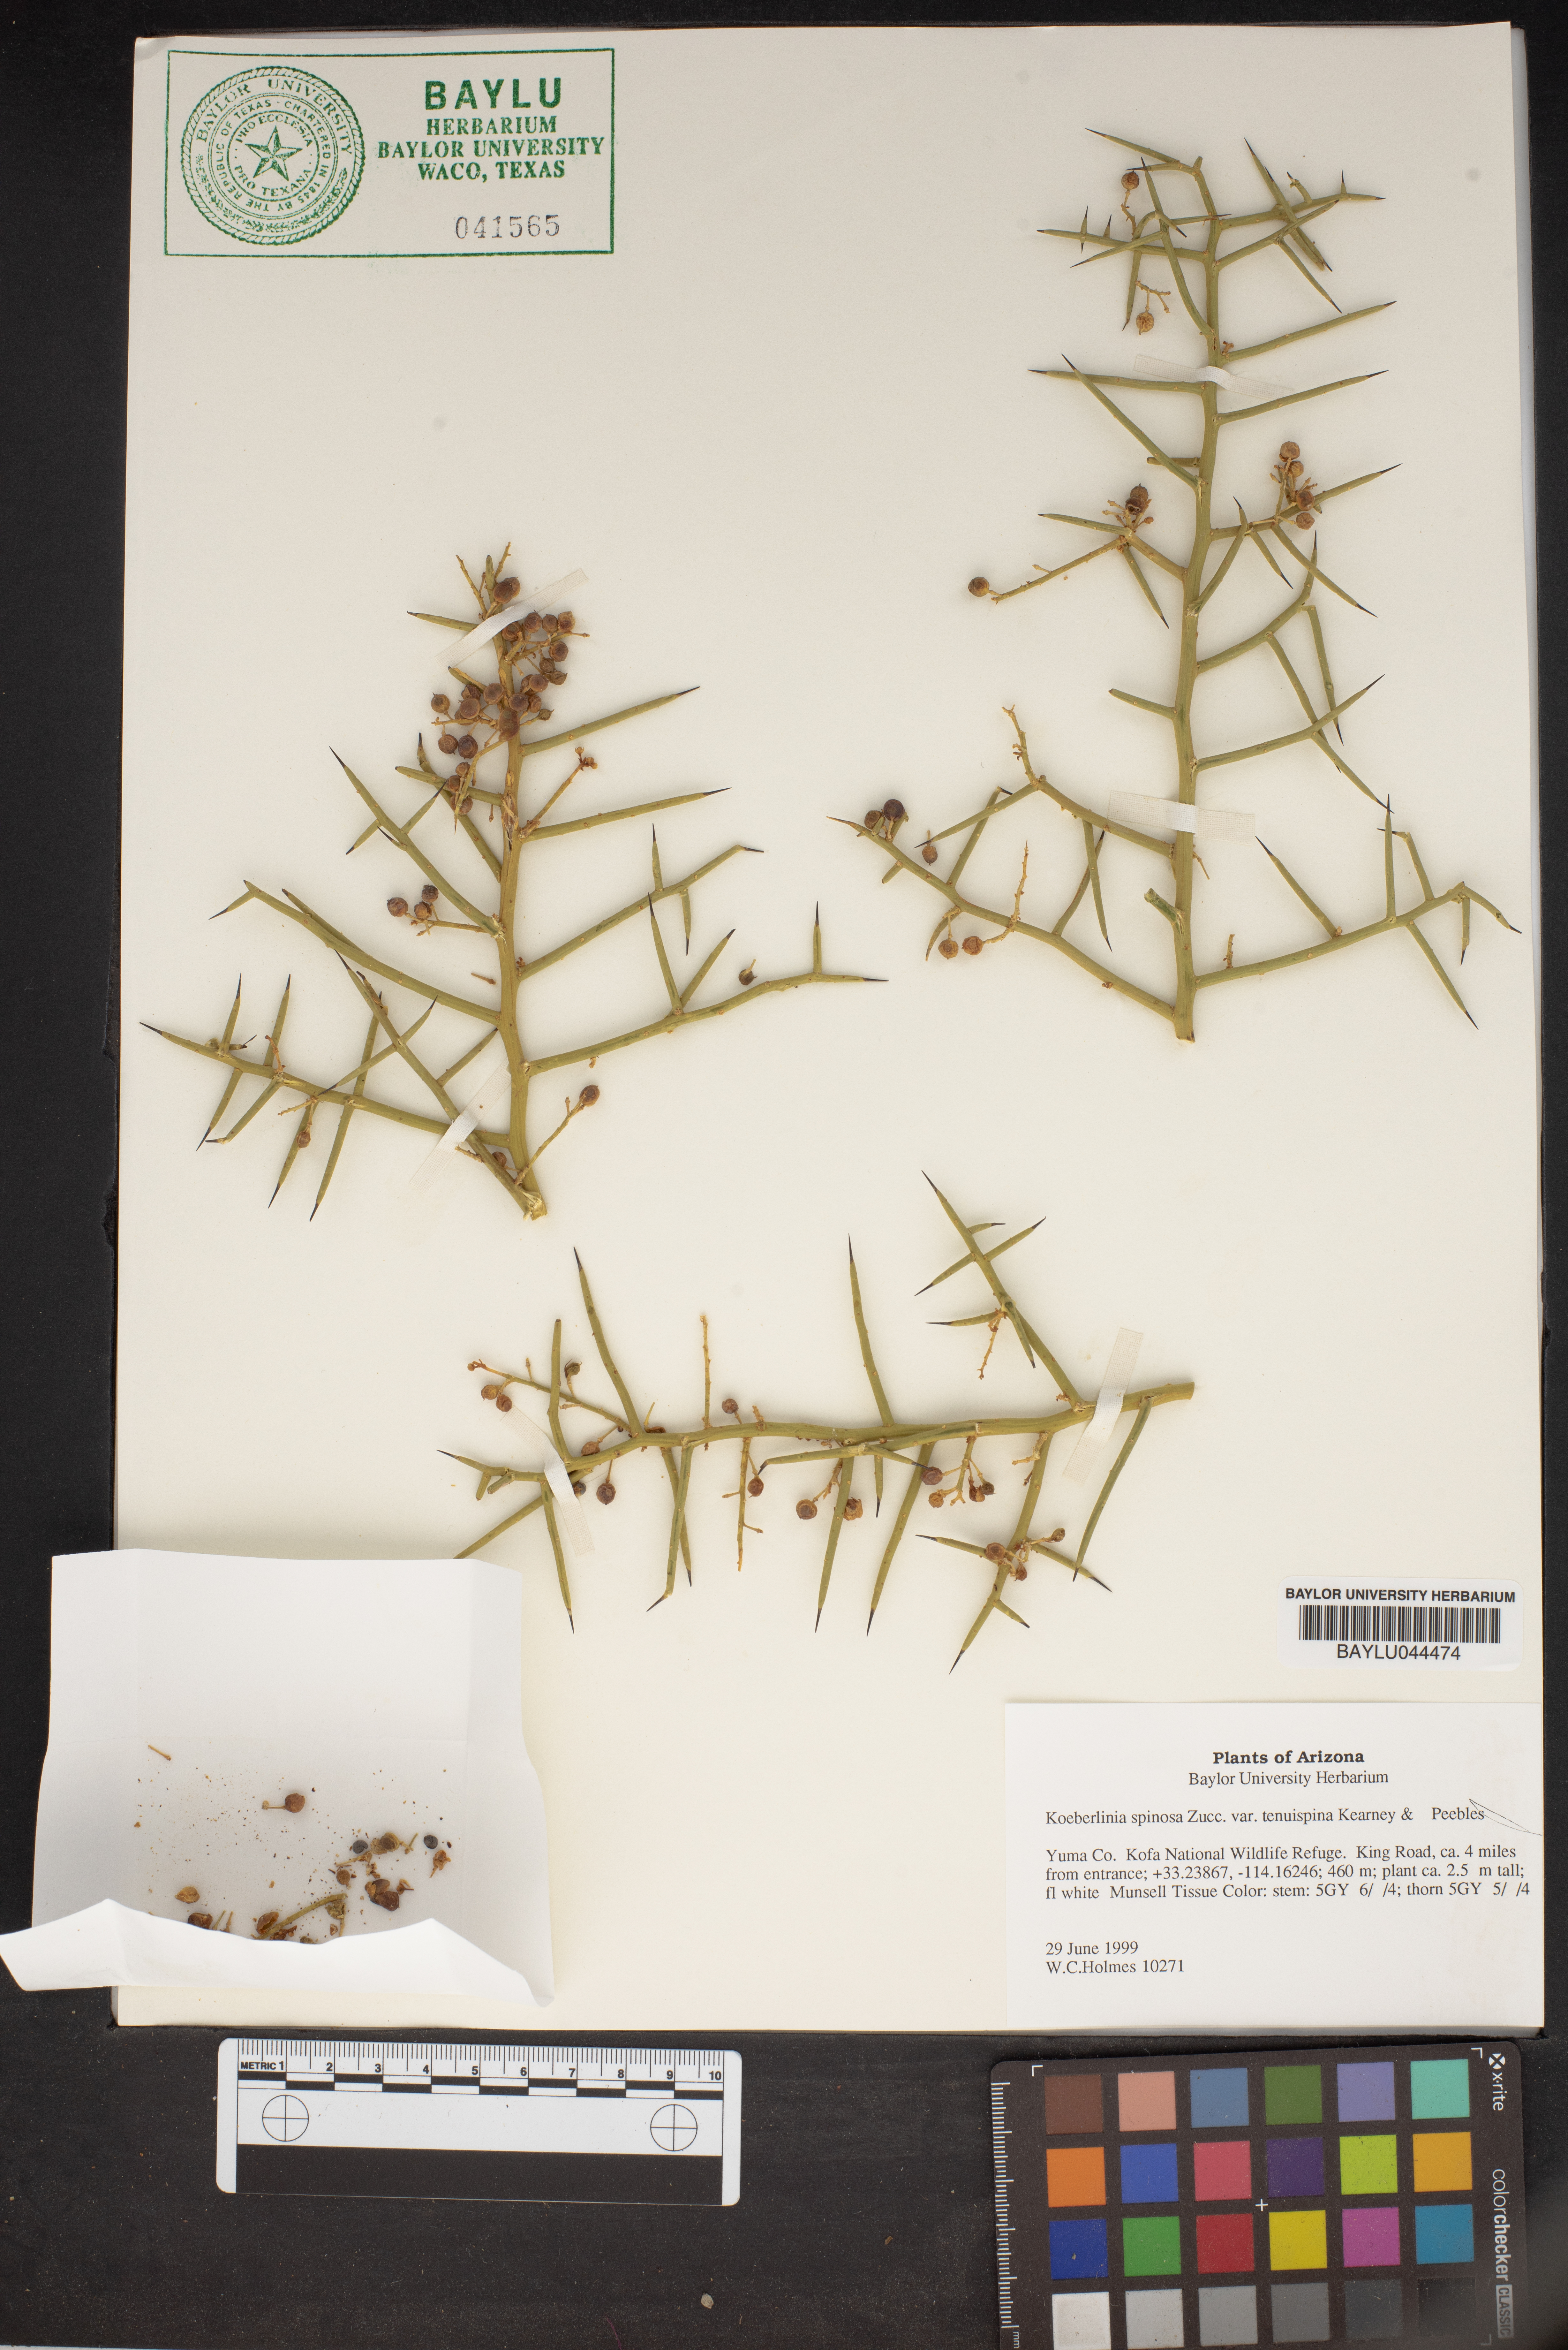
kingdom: Plantae
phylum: Tracheophyta
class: Magnoliopsida
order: Brassicales
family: Koeberliniaceae
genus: Koeberlinia
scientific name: Koeberlinia spinosa
